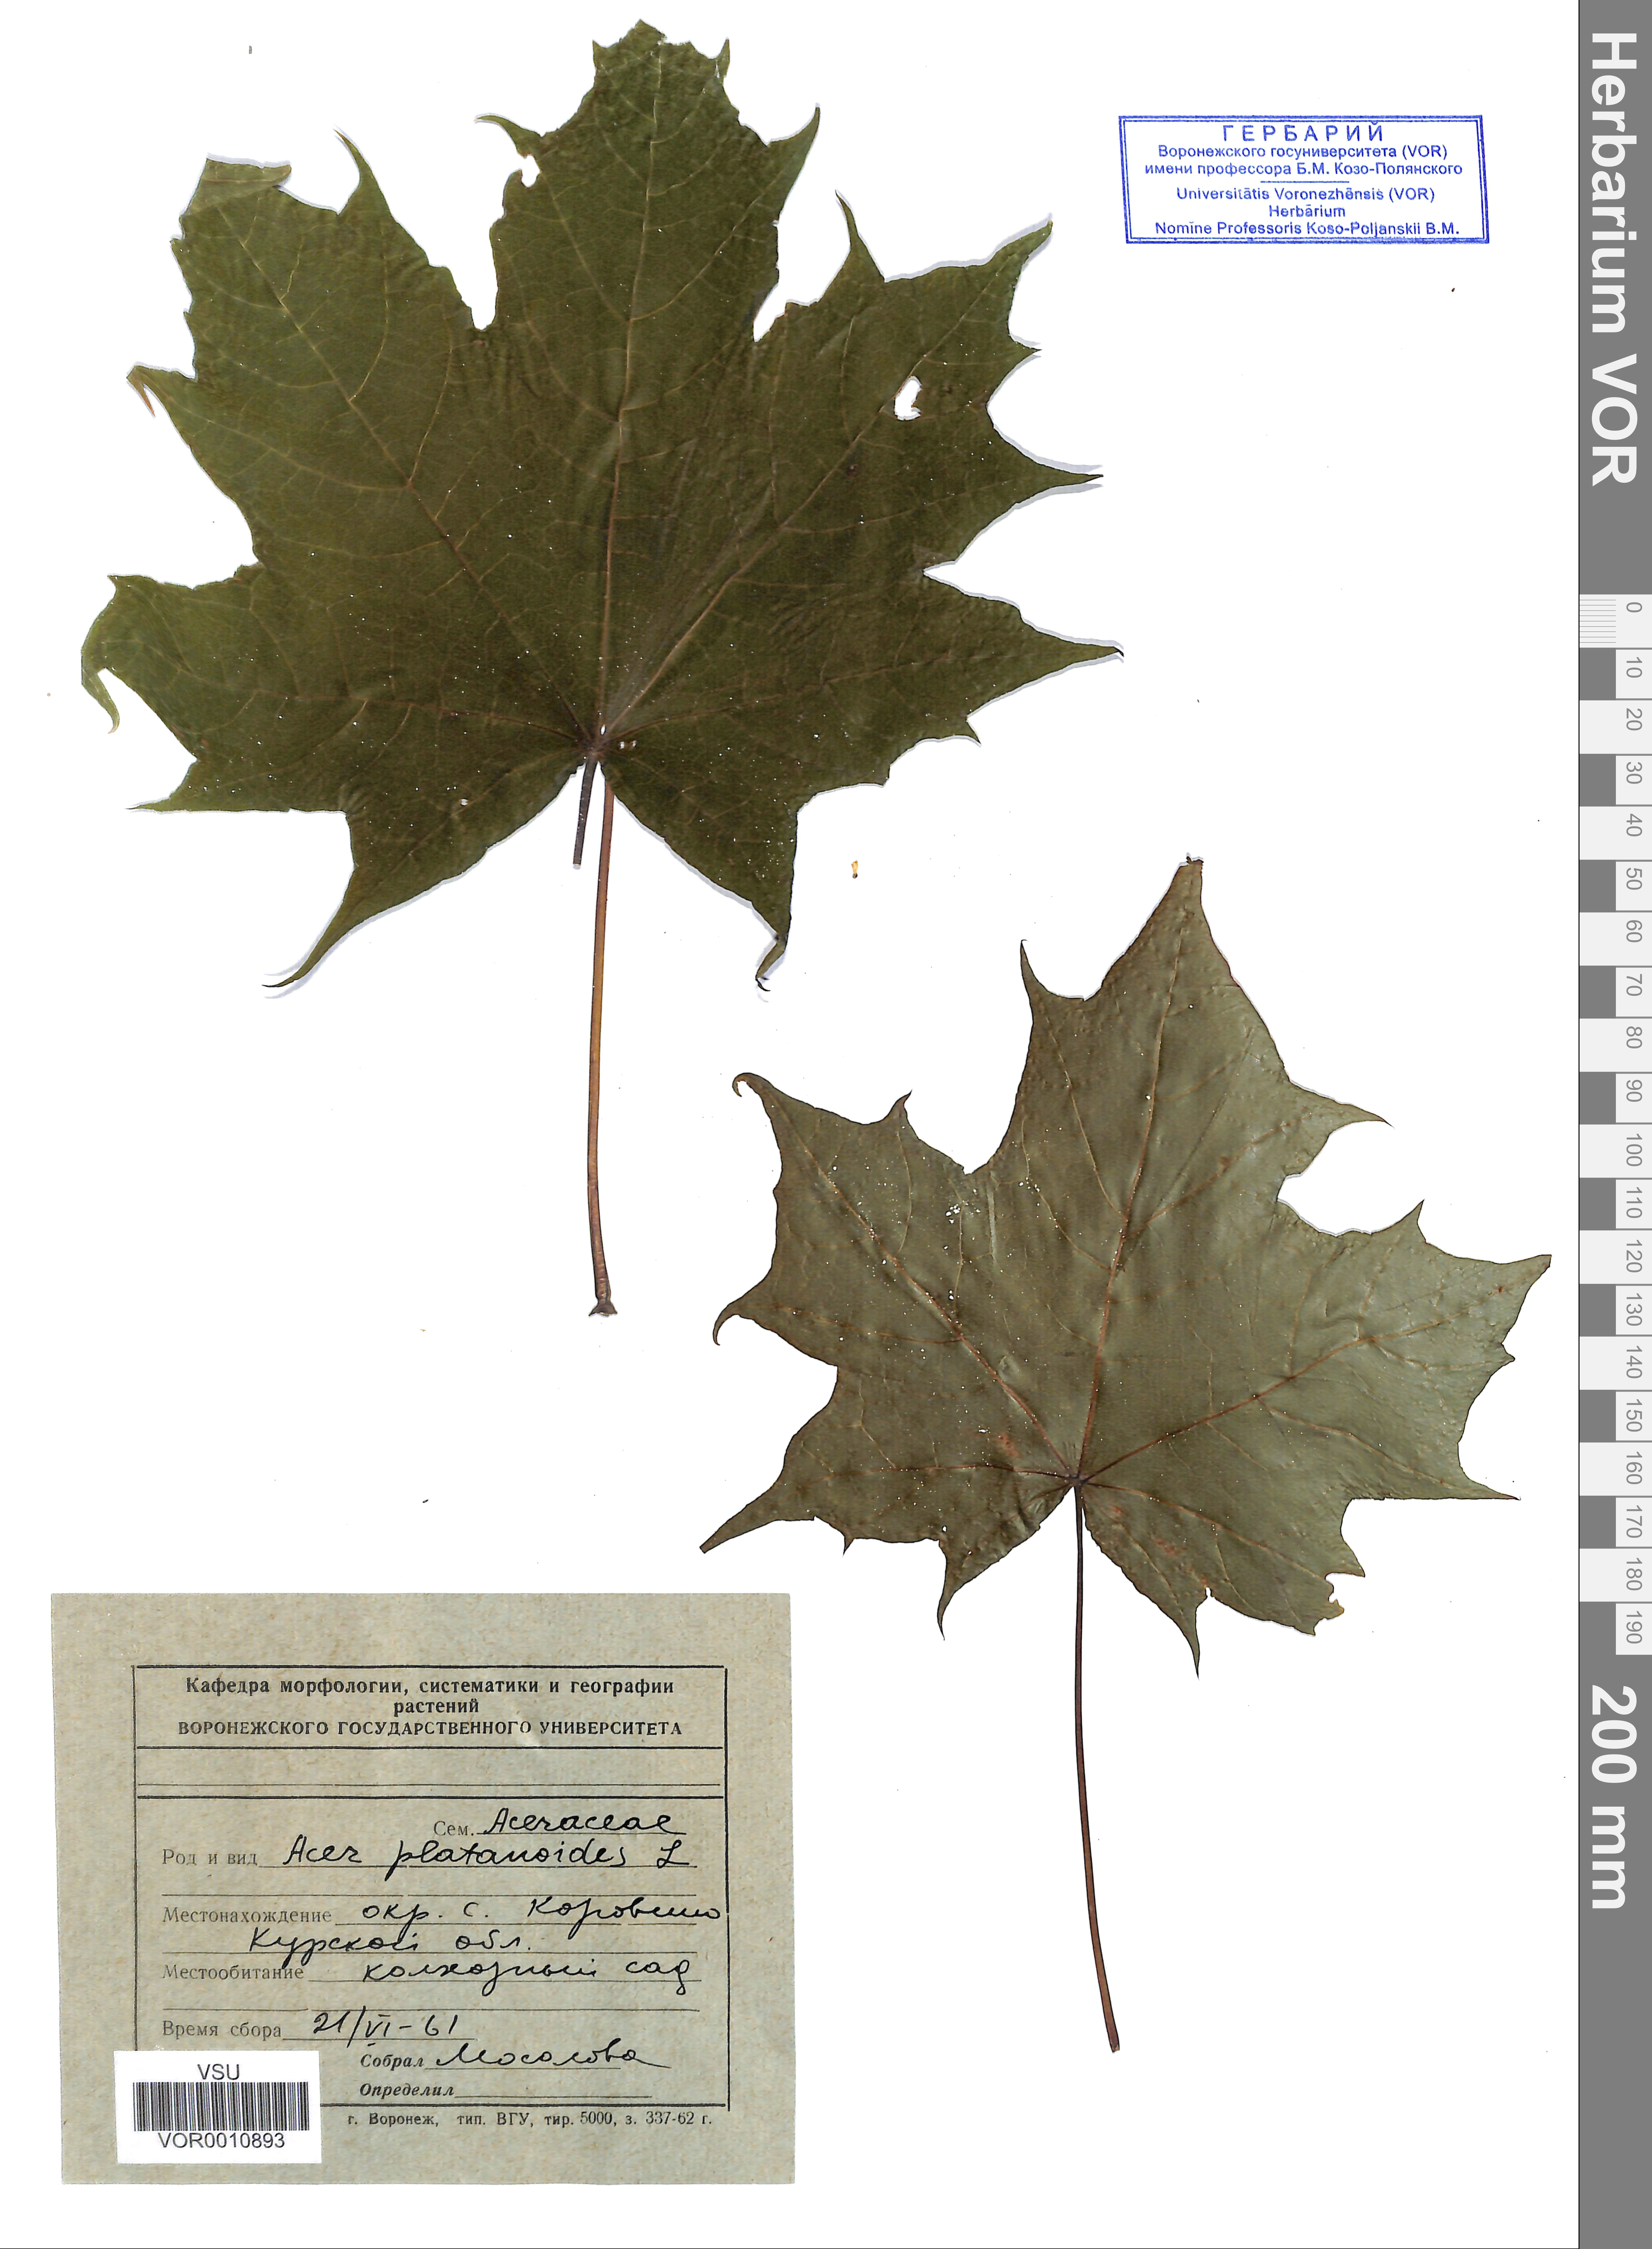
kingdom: Plantae
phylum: Tracheophyta
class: Magnoliopsida
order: Sapindales
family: Sapindaceae
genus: Acer
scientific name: Acer platanoides
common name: Norway maple
